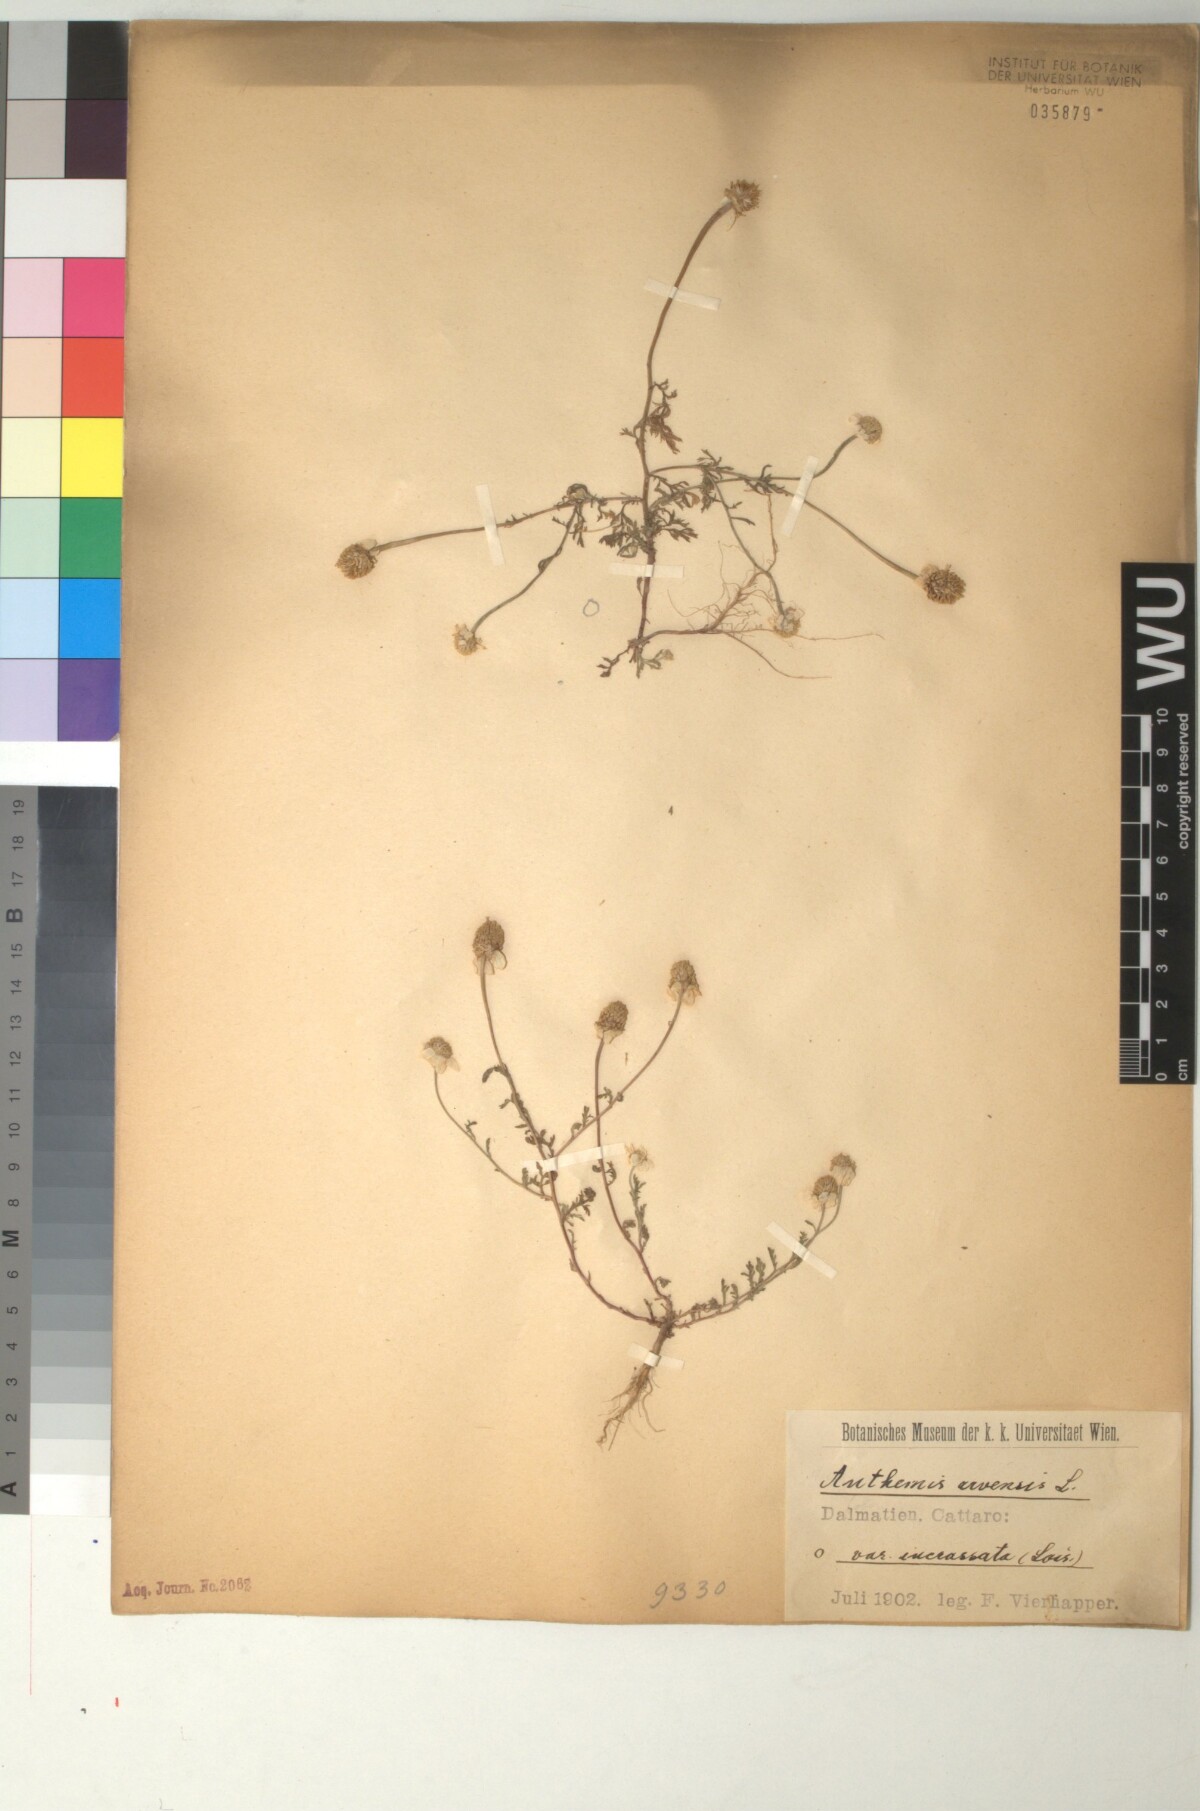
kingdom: Plantae
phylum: Tracheophyta
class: Magnoliopsida
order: Asterales
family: Asteraceae
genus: Anthemis
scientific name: Anthemis arvensis
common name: Corn chamomile
